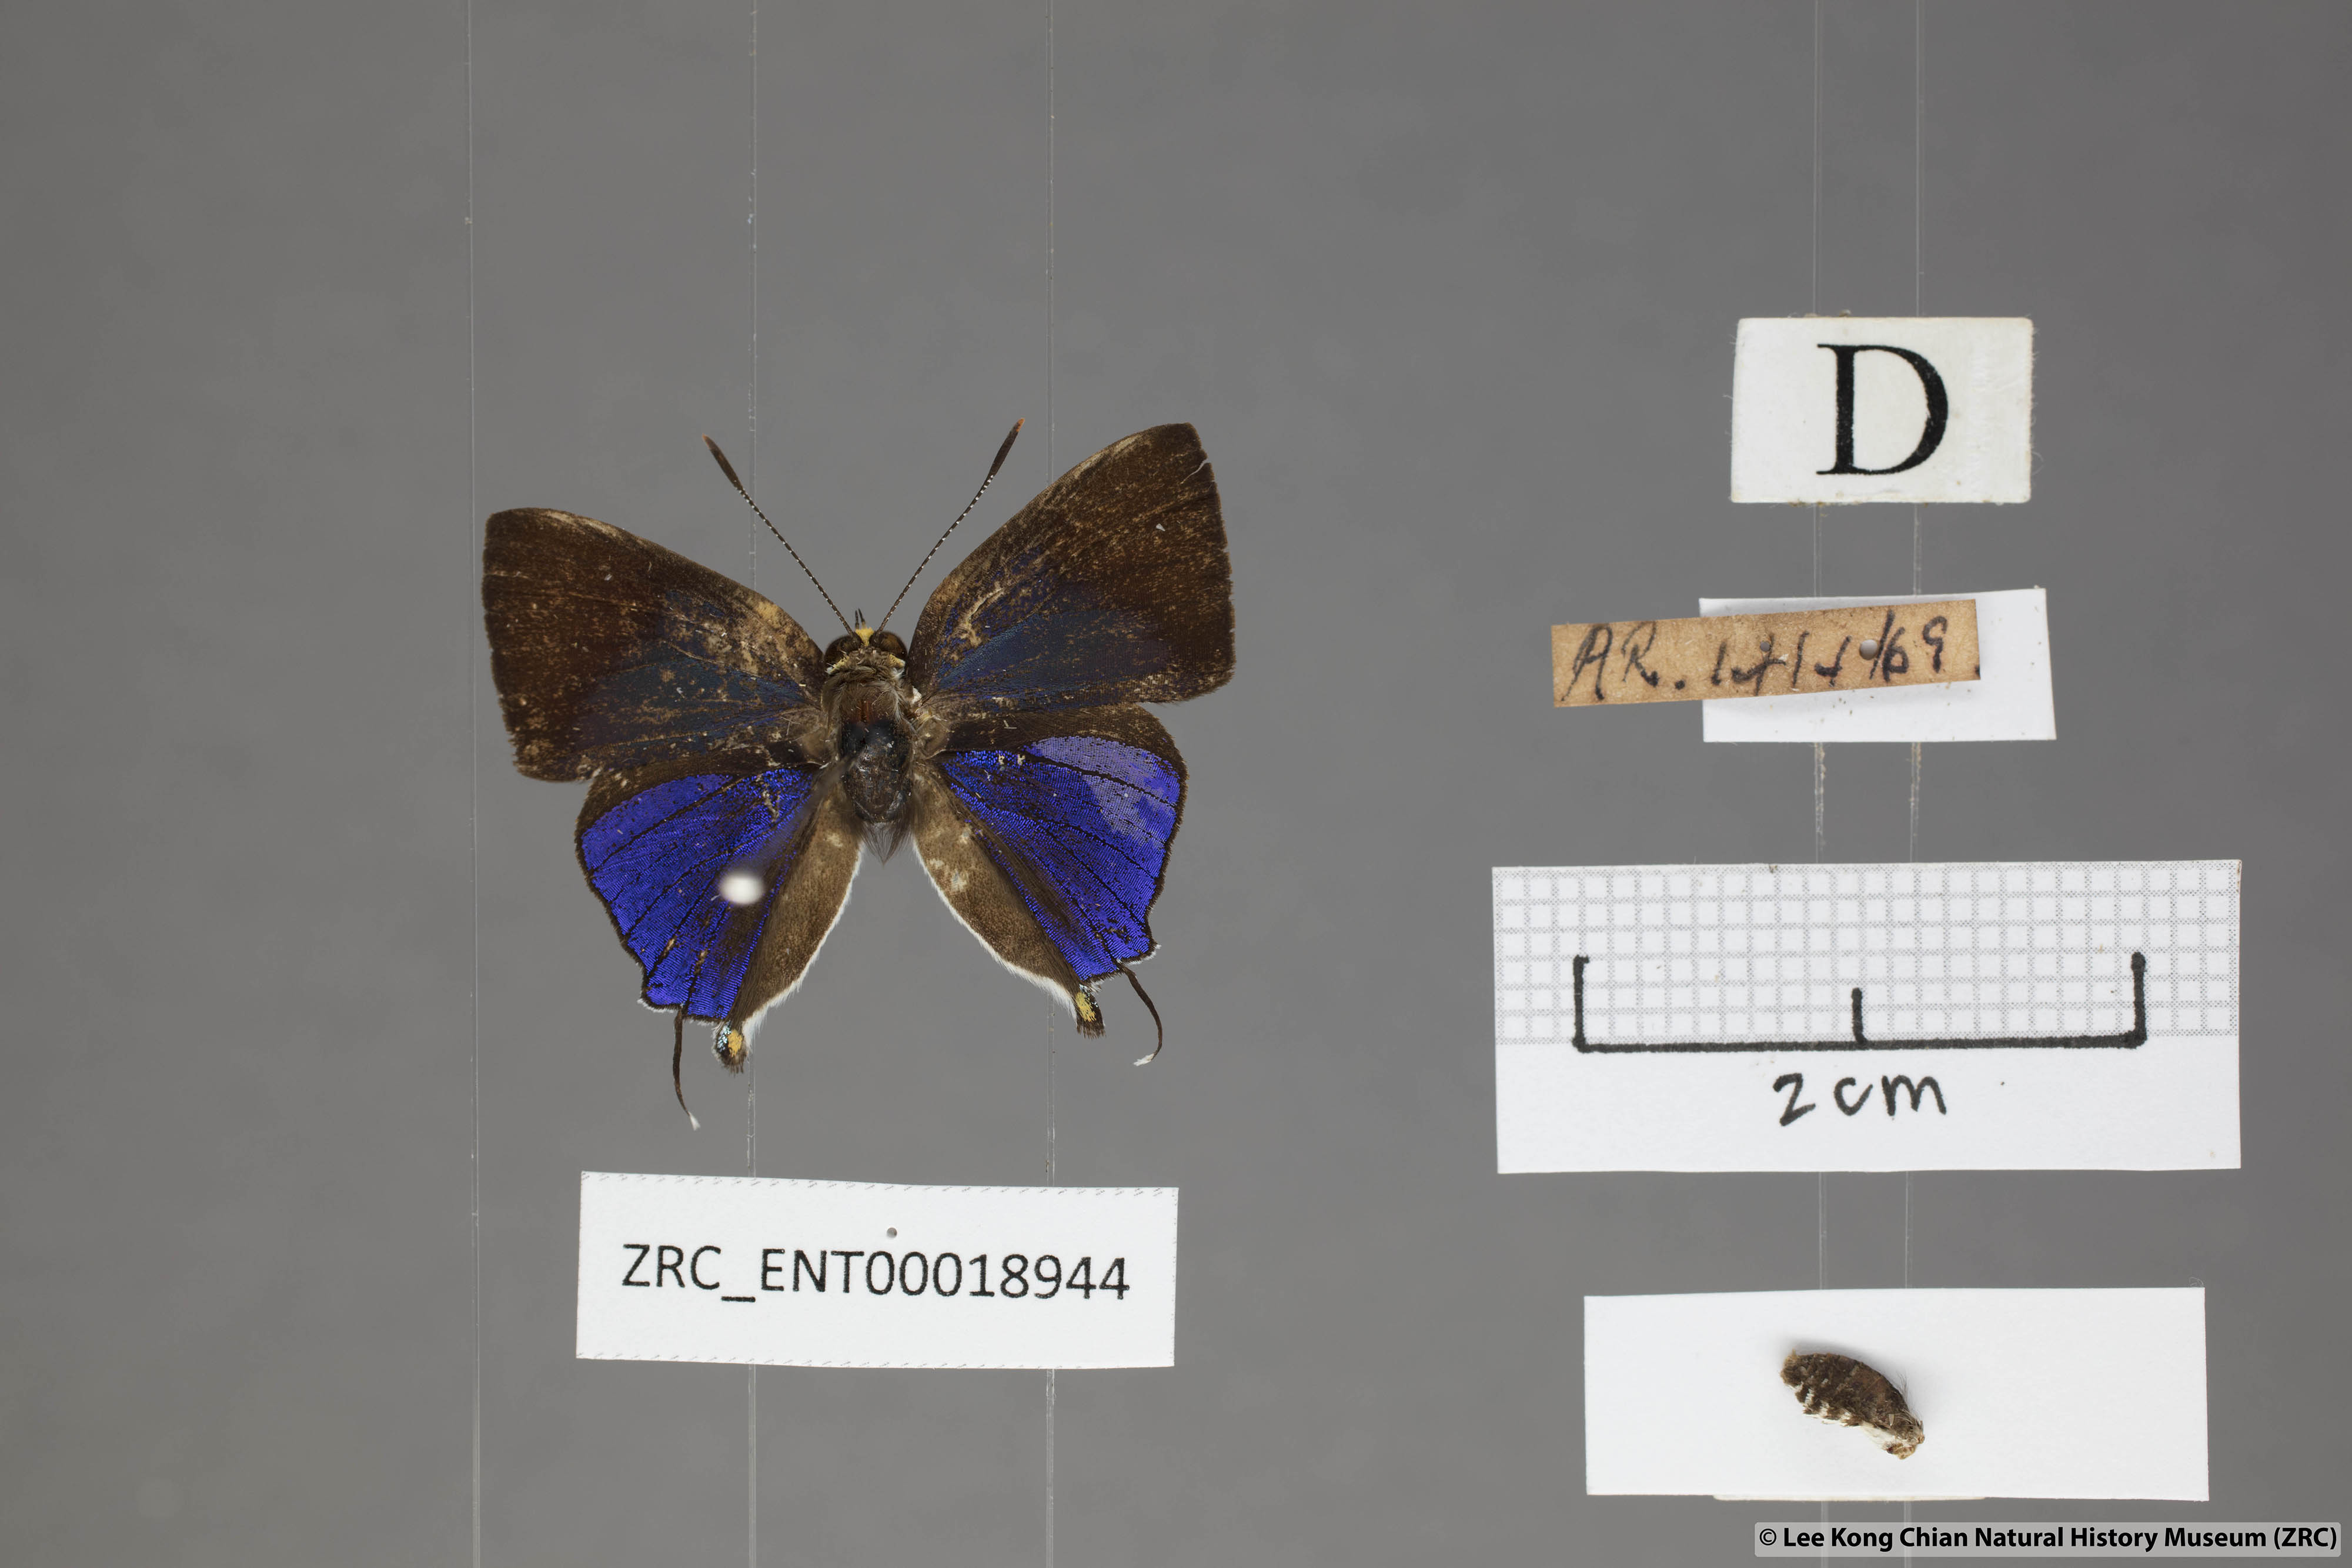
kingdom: Animalia
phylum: Arthropoda
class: Insecta
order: Lepidoptera
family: Lycaenidae
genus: Araotes
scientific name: Araotes lapithis
